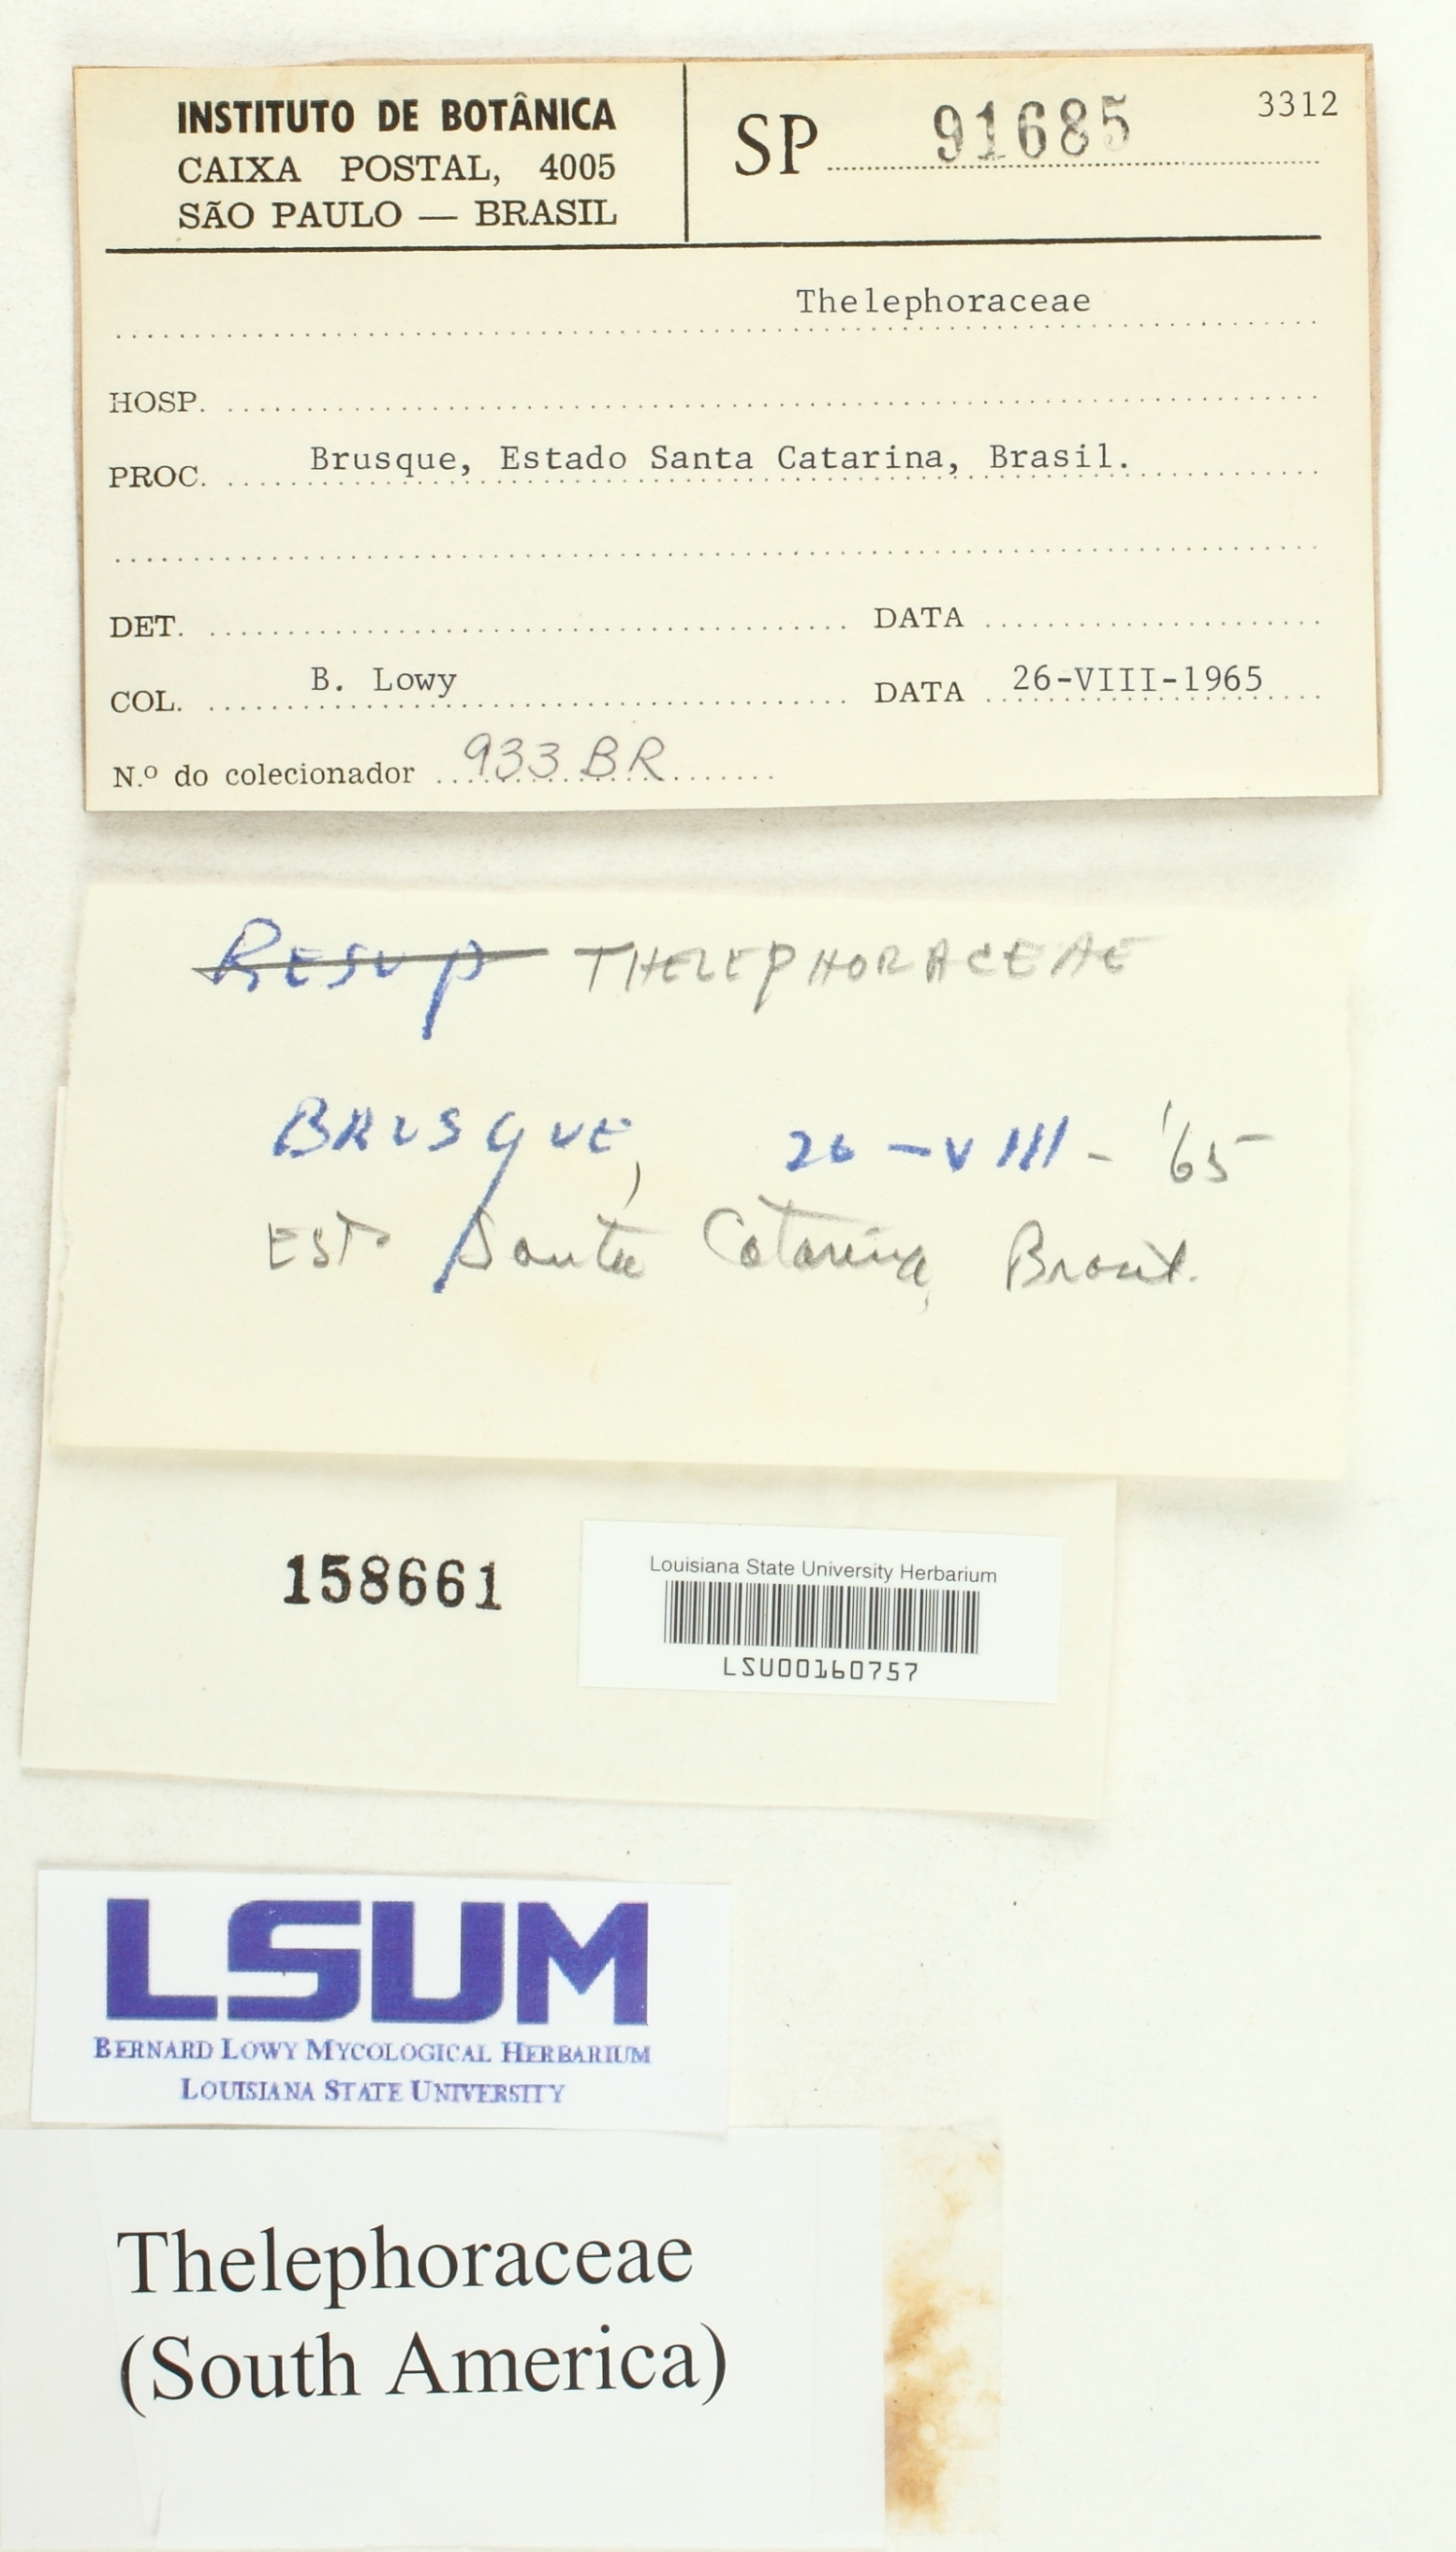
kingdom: Fungi
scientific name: Fungi
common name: Fungi
